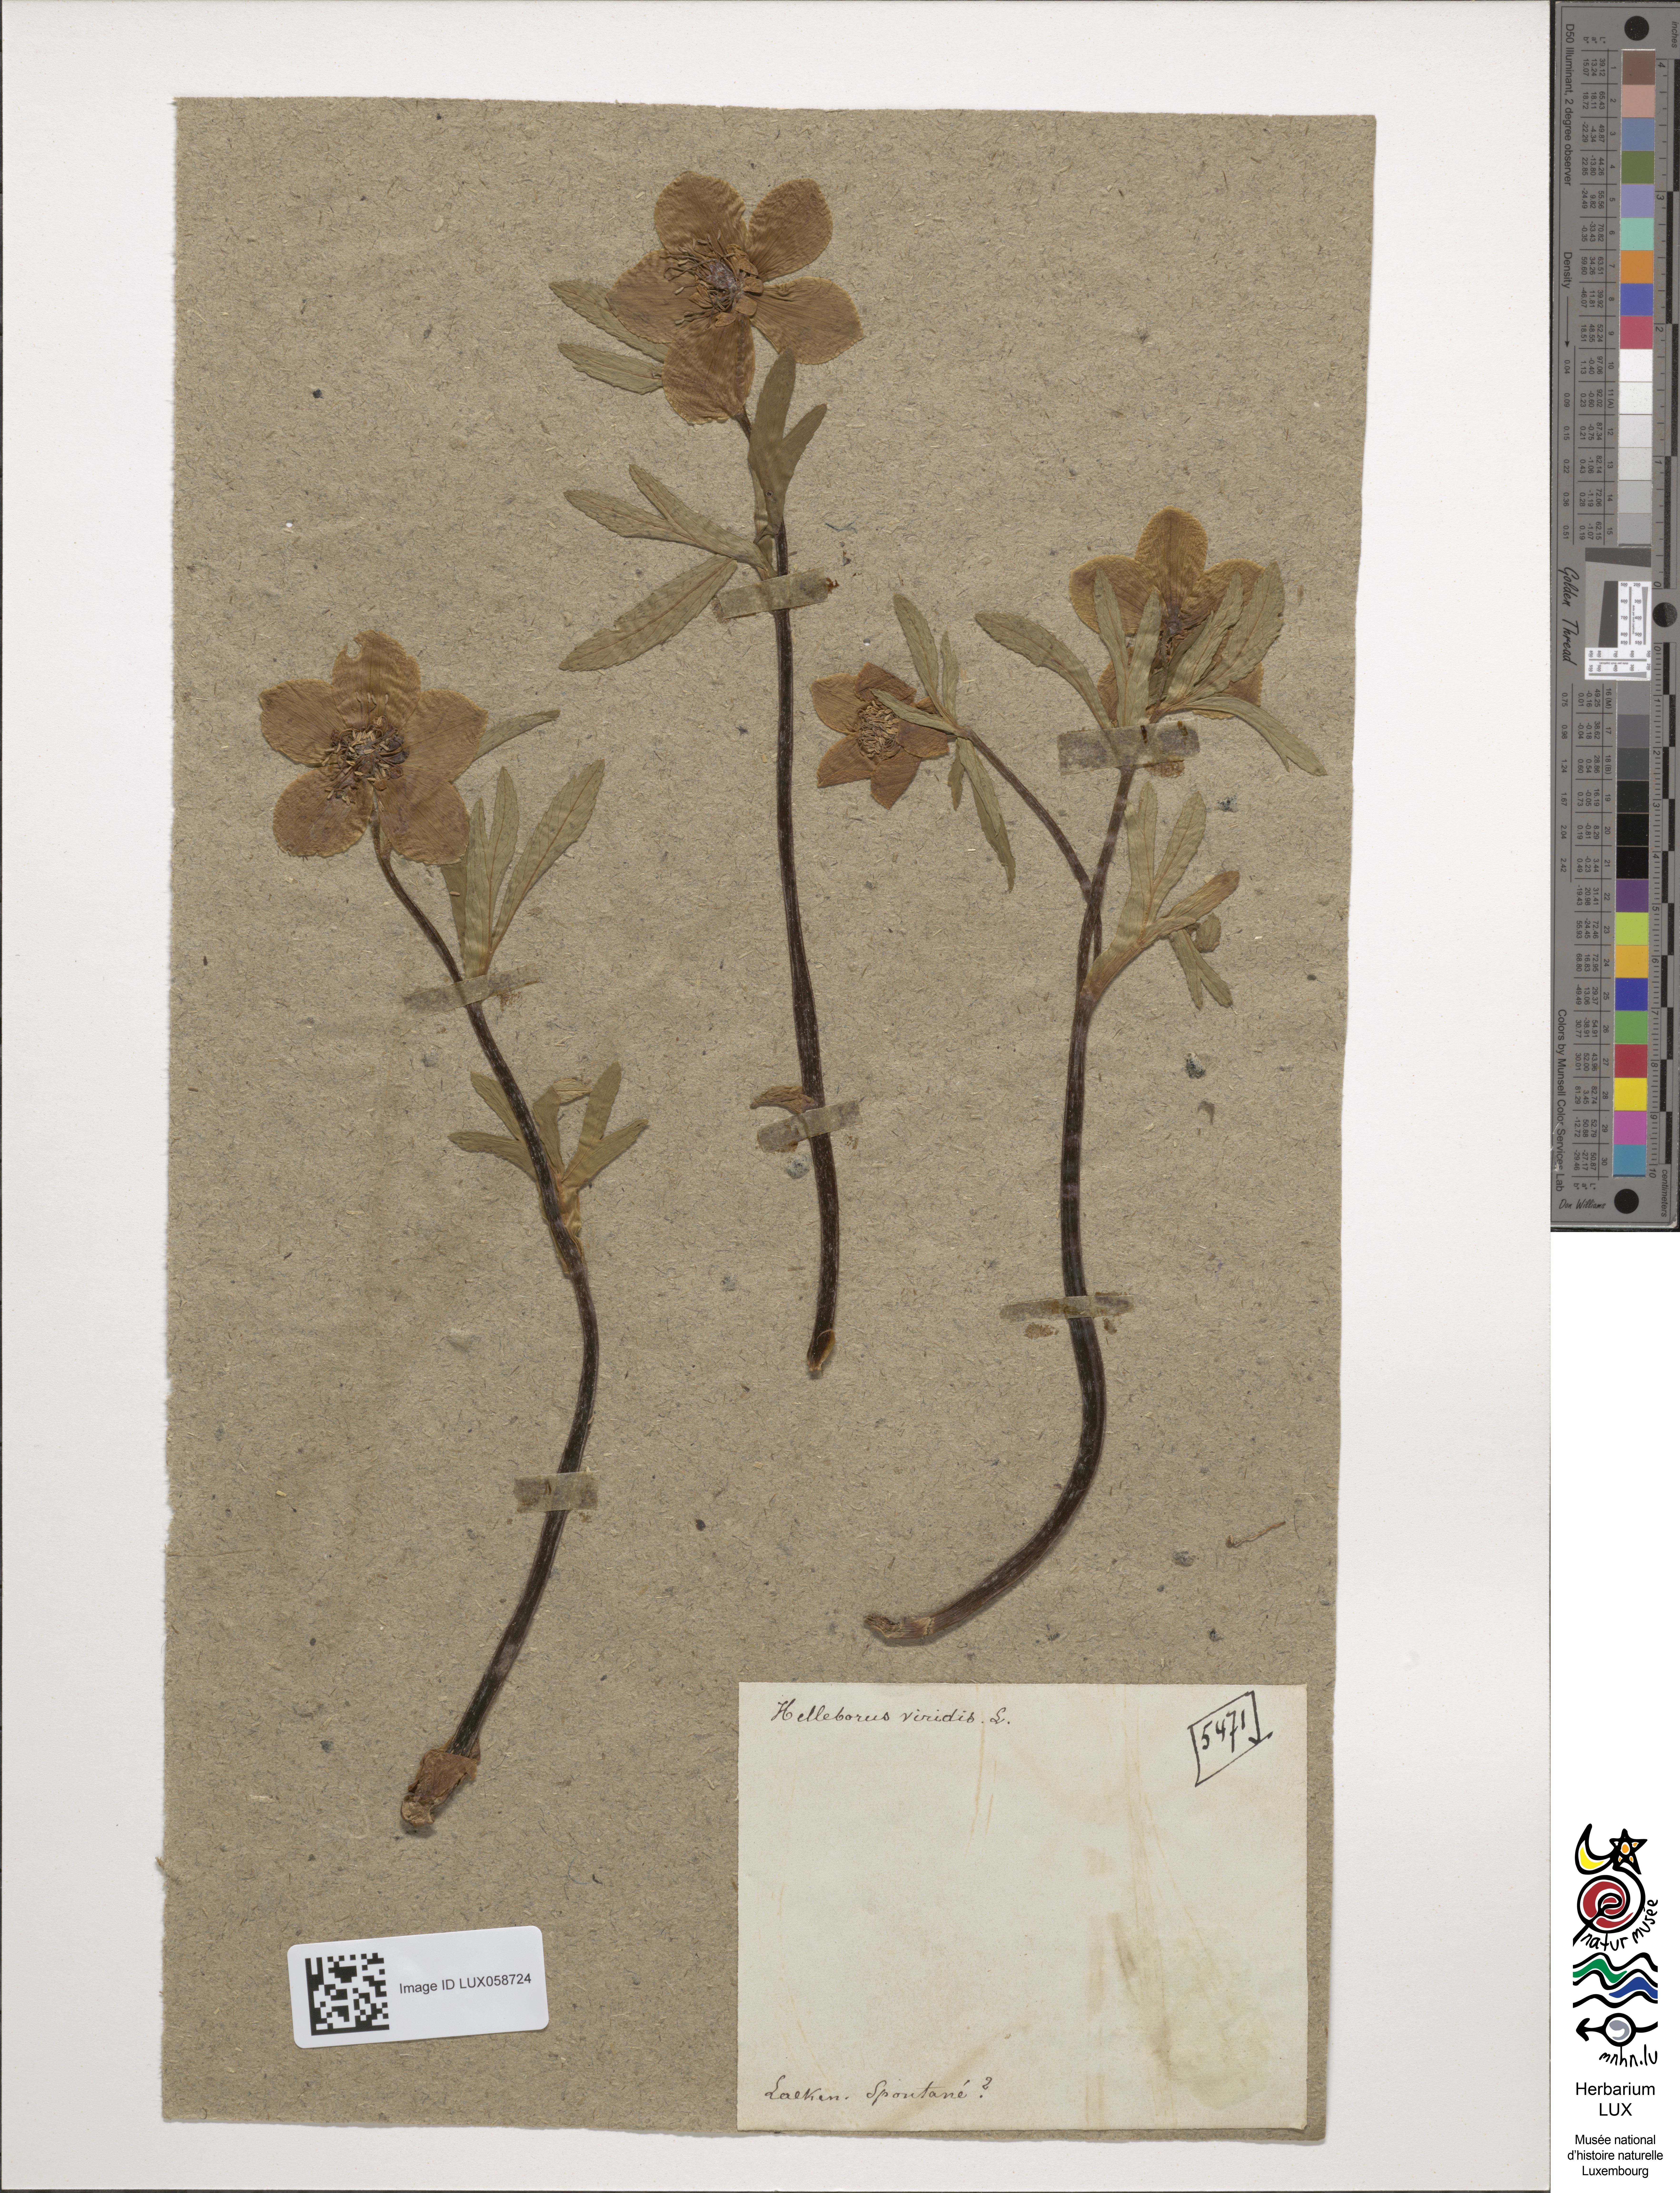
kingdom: Plantae
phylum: Tracheophyta
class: Magnoliopsida
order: Ranunculales
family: Ranunculaceae
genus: Helleborus
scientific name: Helleborus viridis
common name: Green hellebore
